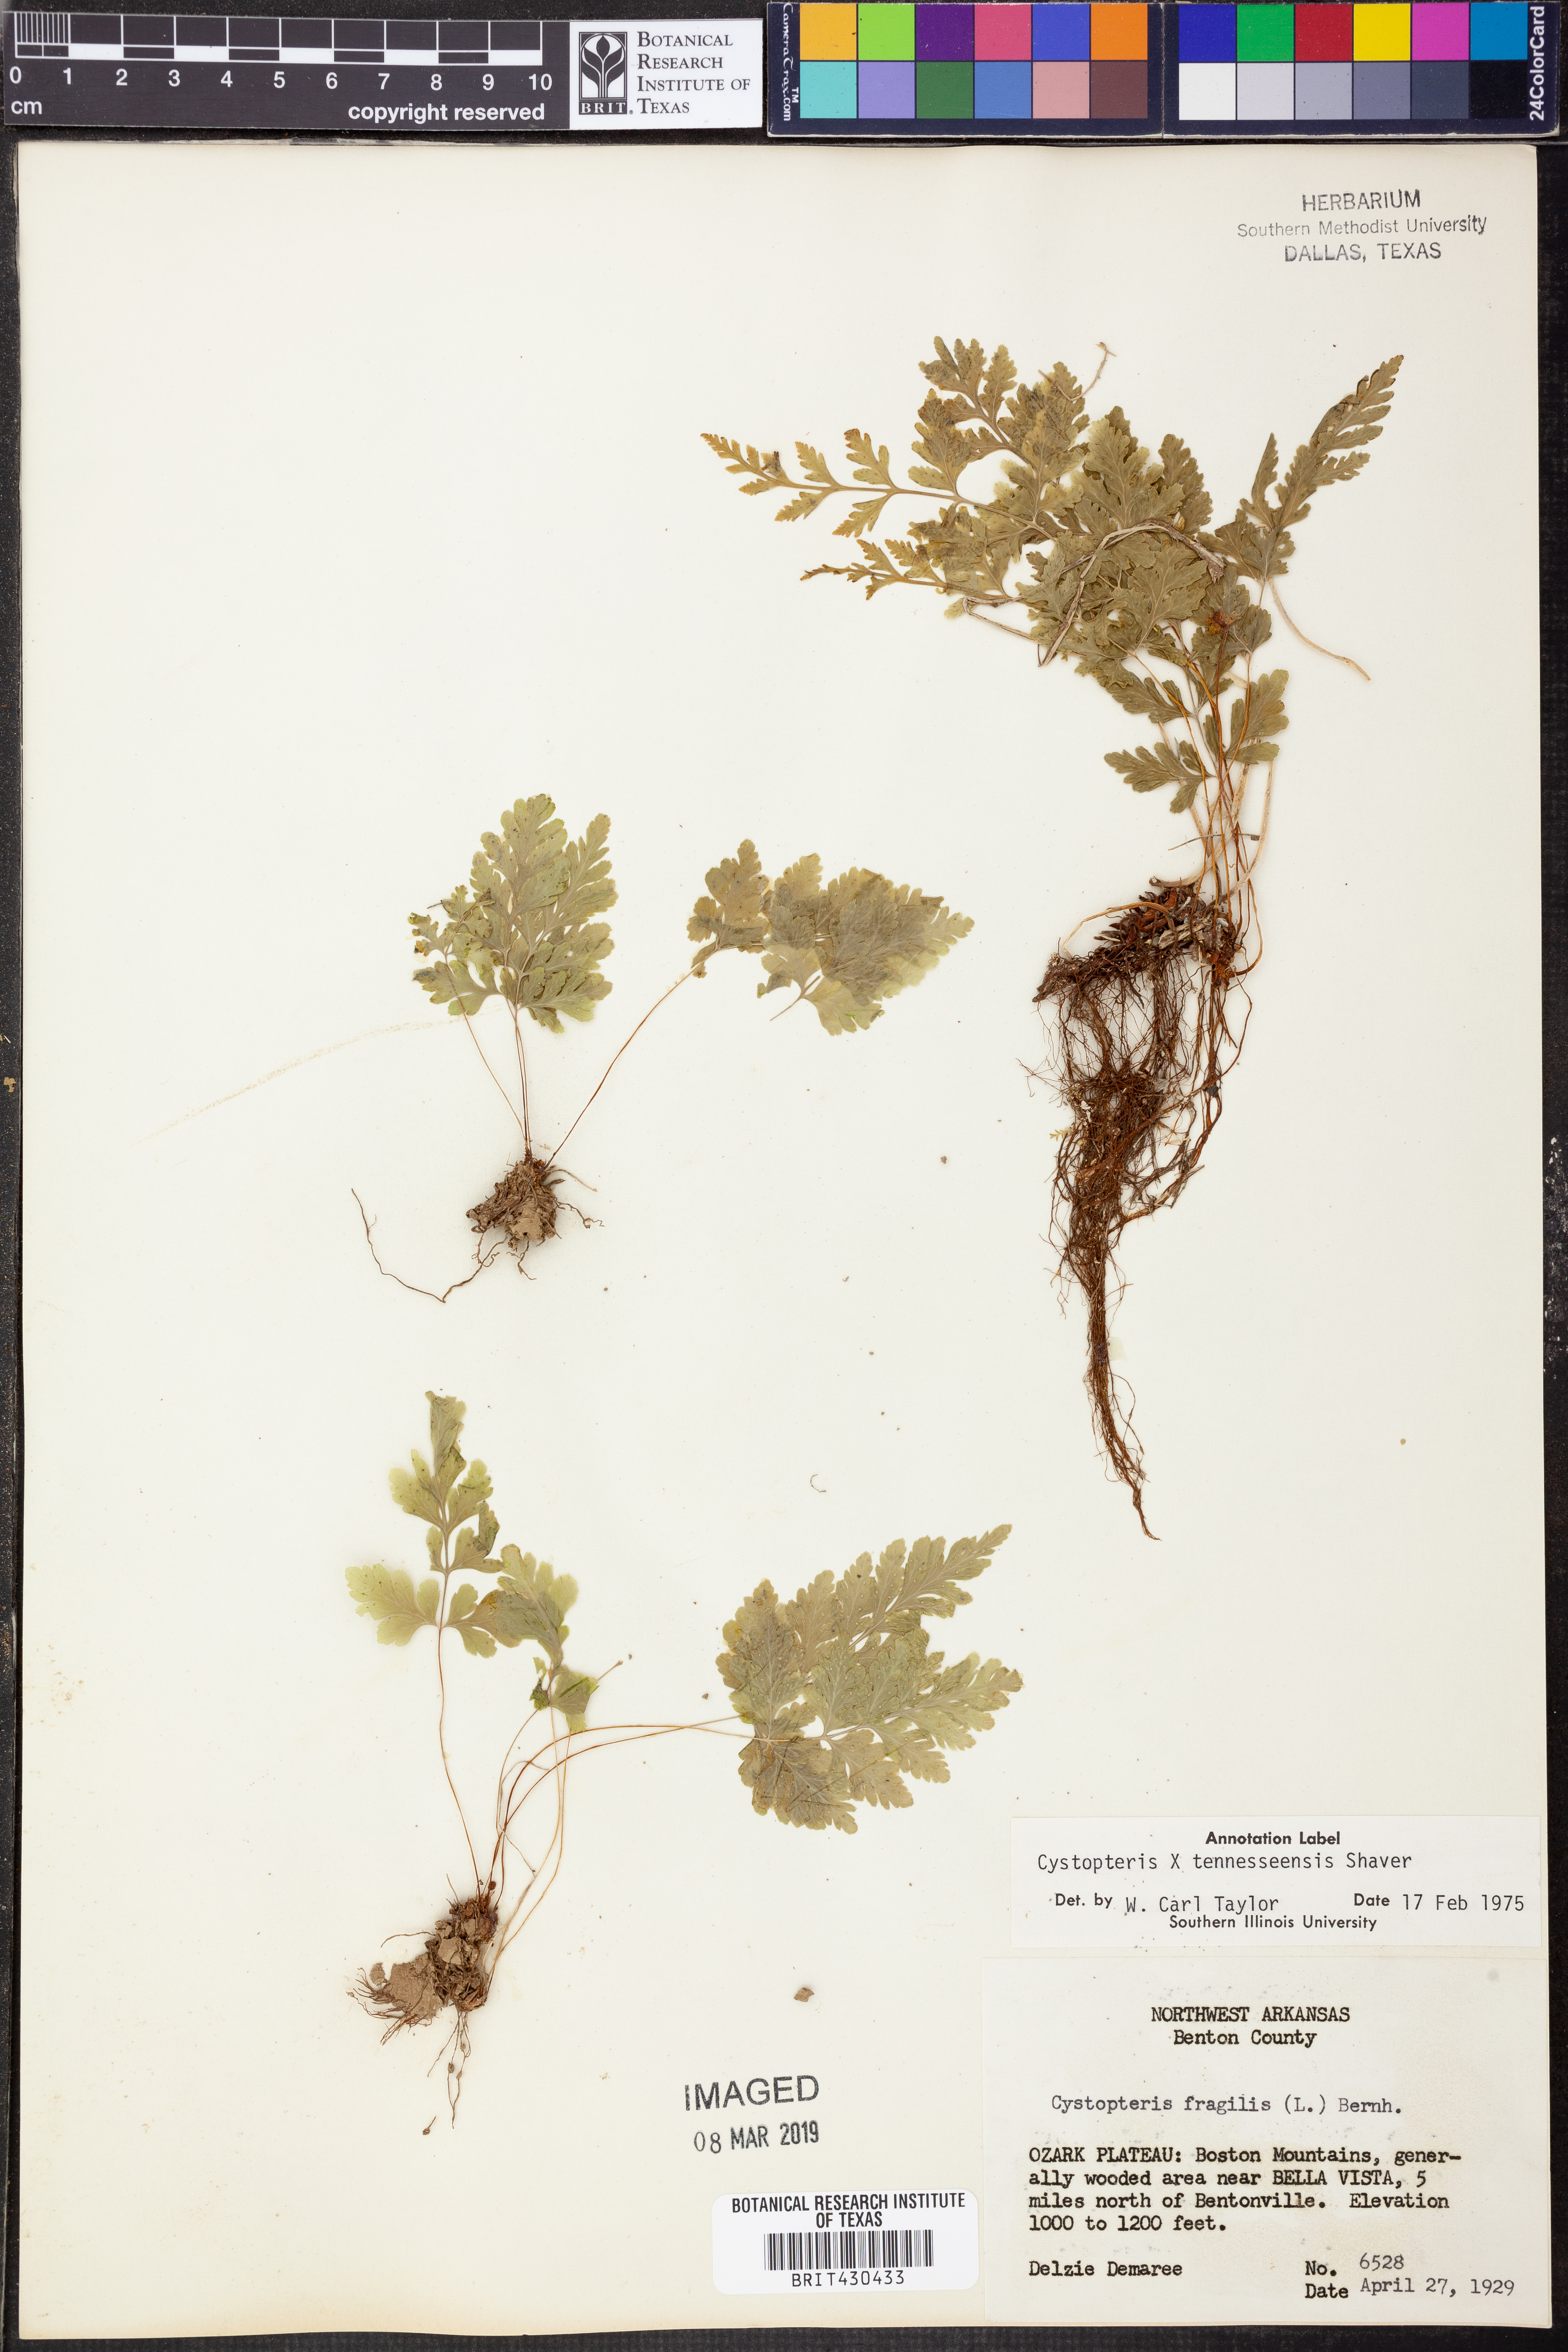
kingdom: Plantae
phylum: Tracheophyta
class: Polypodiopsida
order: Polypodiales
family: Cystopteridaceae
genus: Cystopteris
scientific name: Cystopteris tennesseensis
